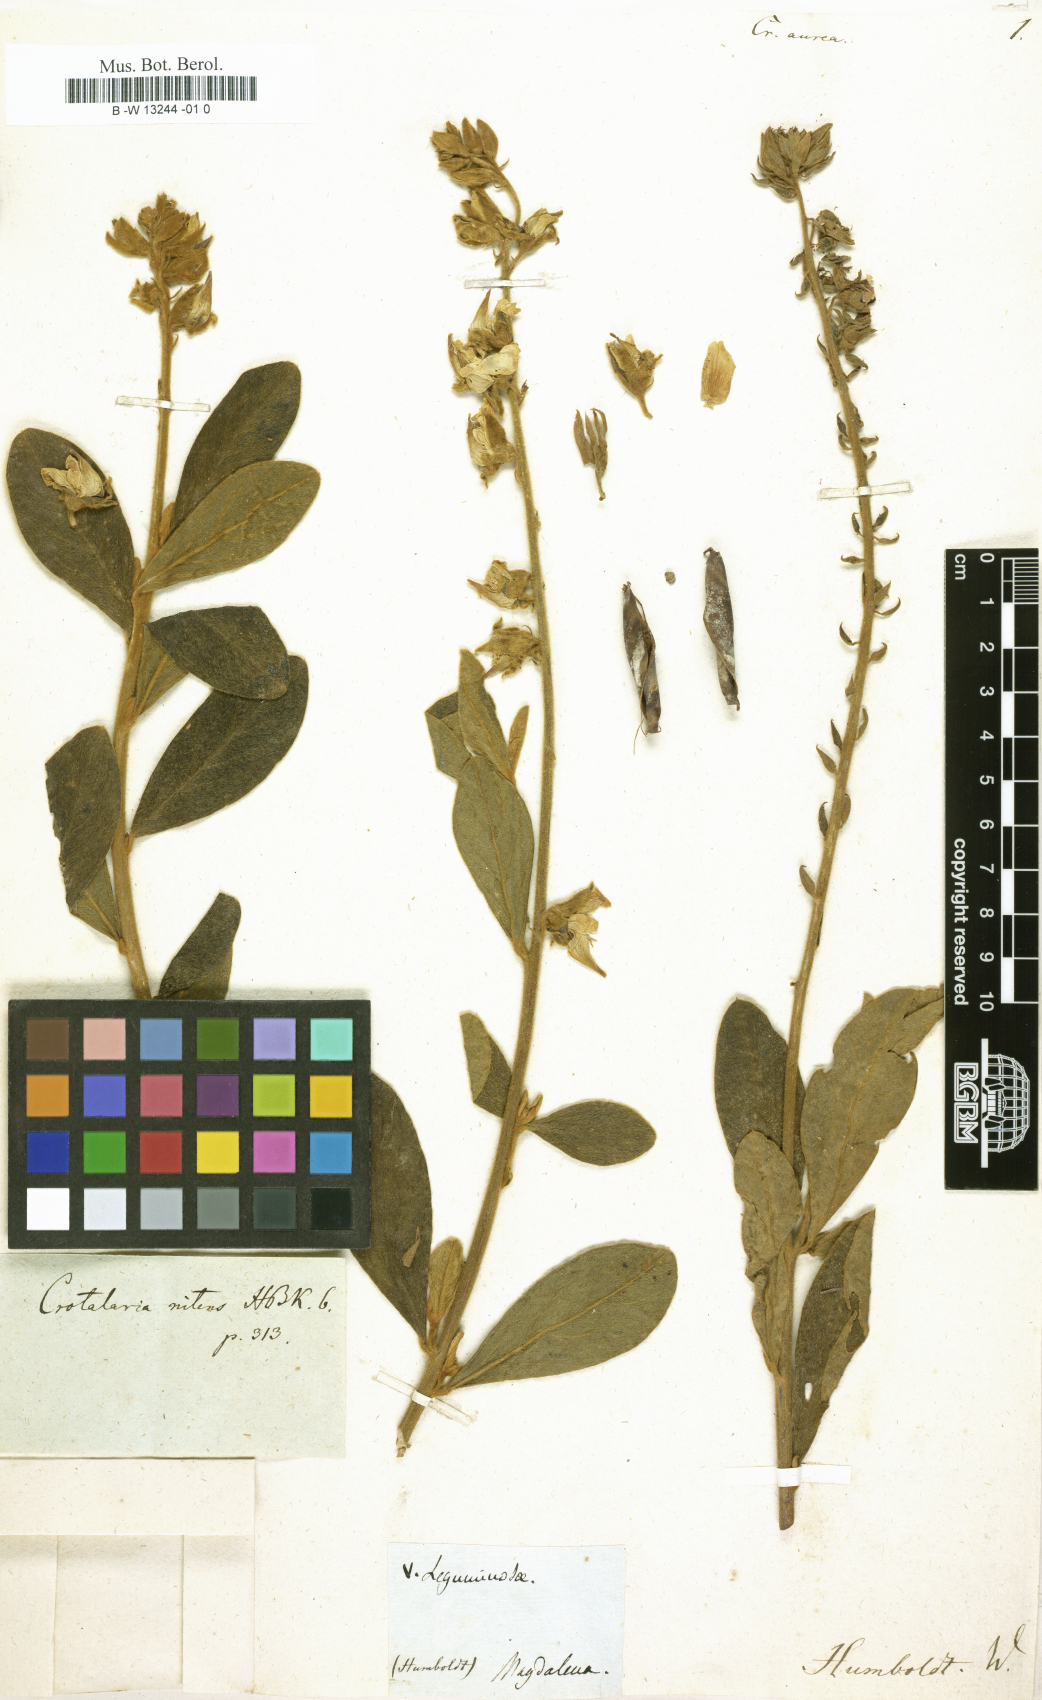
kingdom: Plantae
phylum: Tracheophyta
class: Magnoliopsida
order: Fabales
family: Fabaceae
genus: Crotalaria
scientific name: Crotalaria aurea
